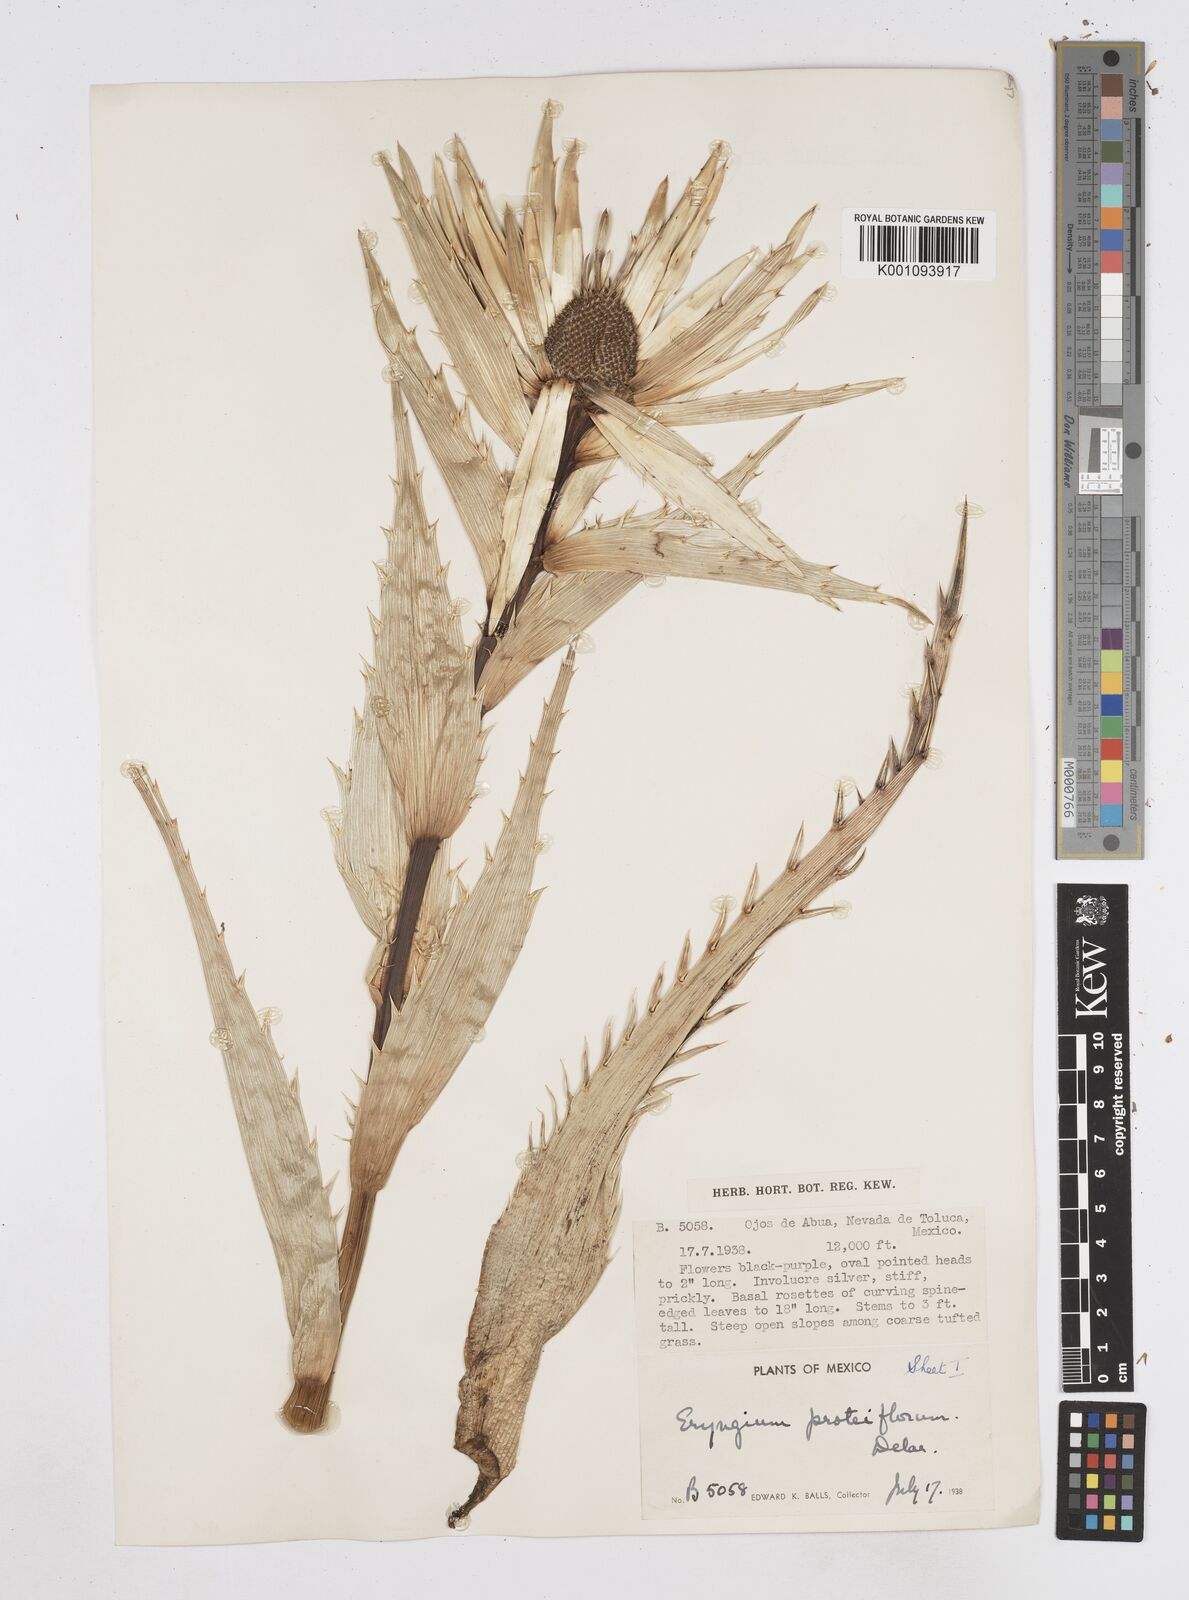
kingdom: Plantae
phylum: Tracheophyta
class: Magnoliopsida
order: Apiales
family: Apiaceae
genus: Eryngium
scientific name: Eryngium proteiflorum
